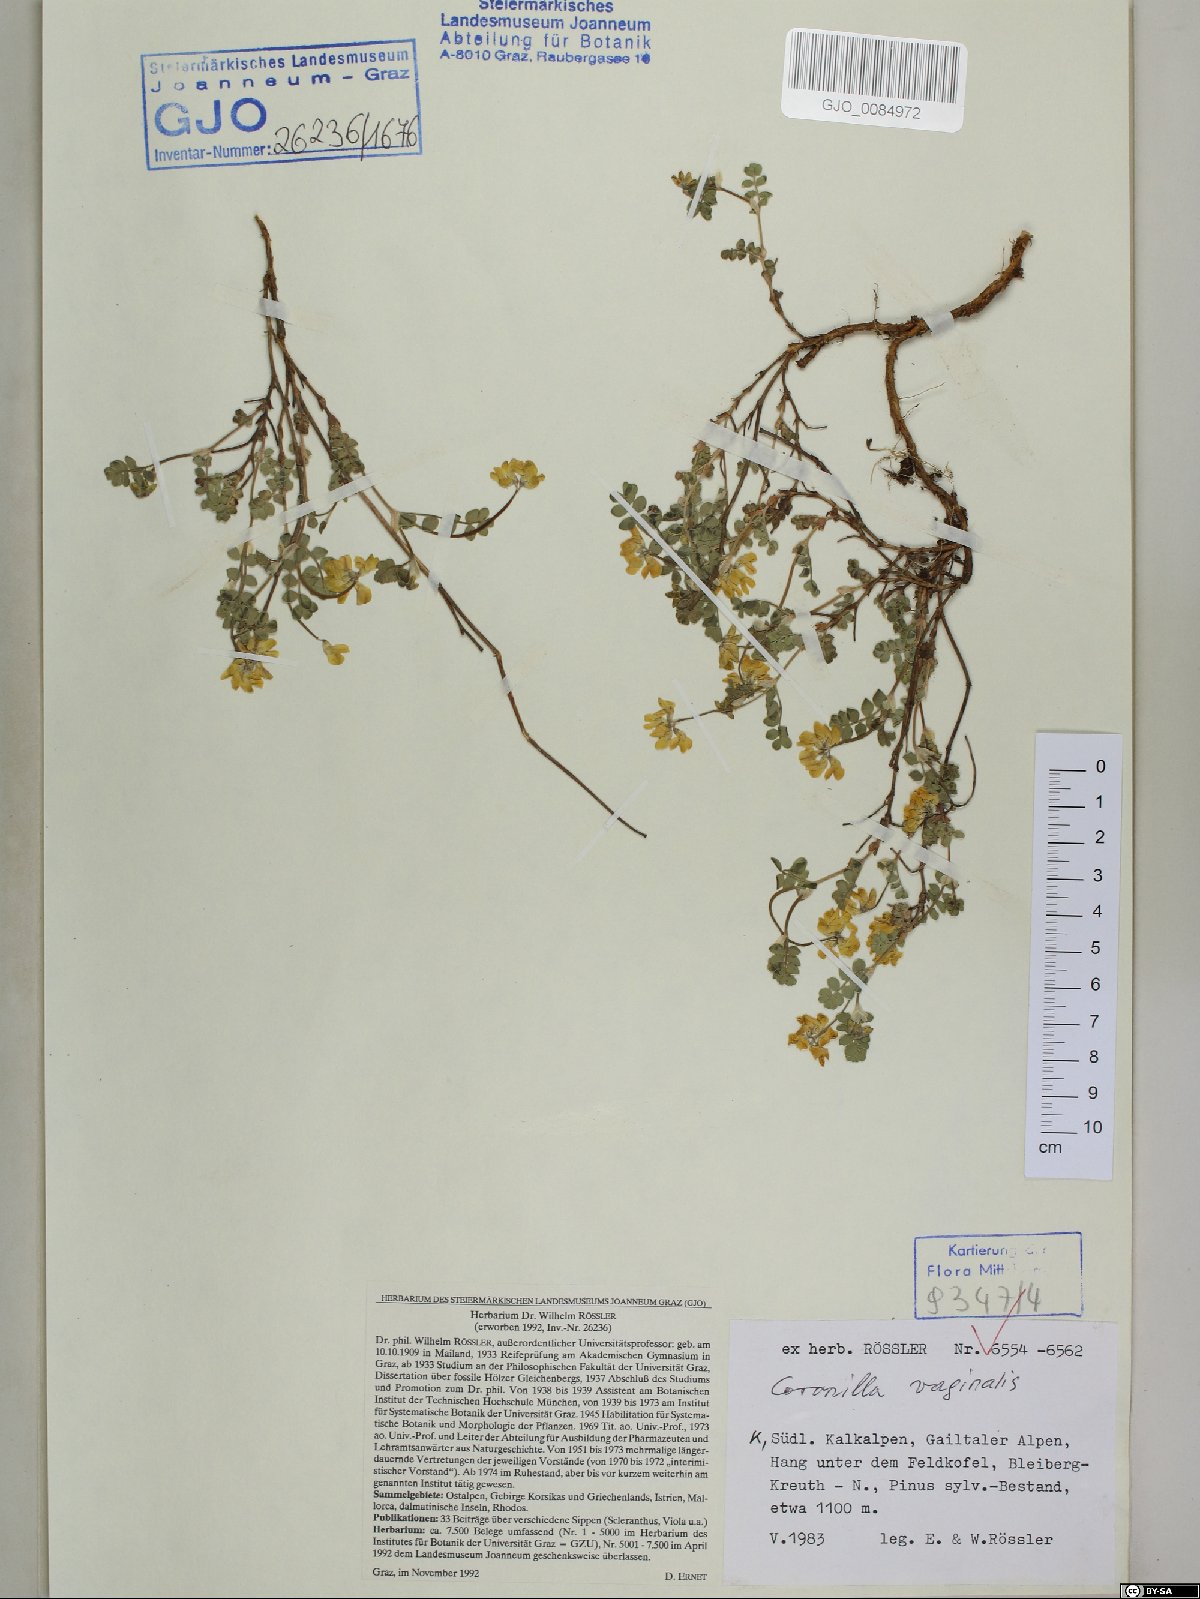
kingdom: Plantae
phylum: Tracheophyta
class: Magnoliopsida
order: Fabales
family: Fabaceae
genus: Coronilla
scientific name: Coronilla vaginalis
